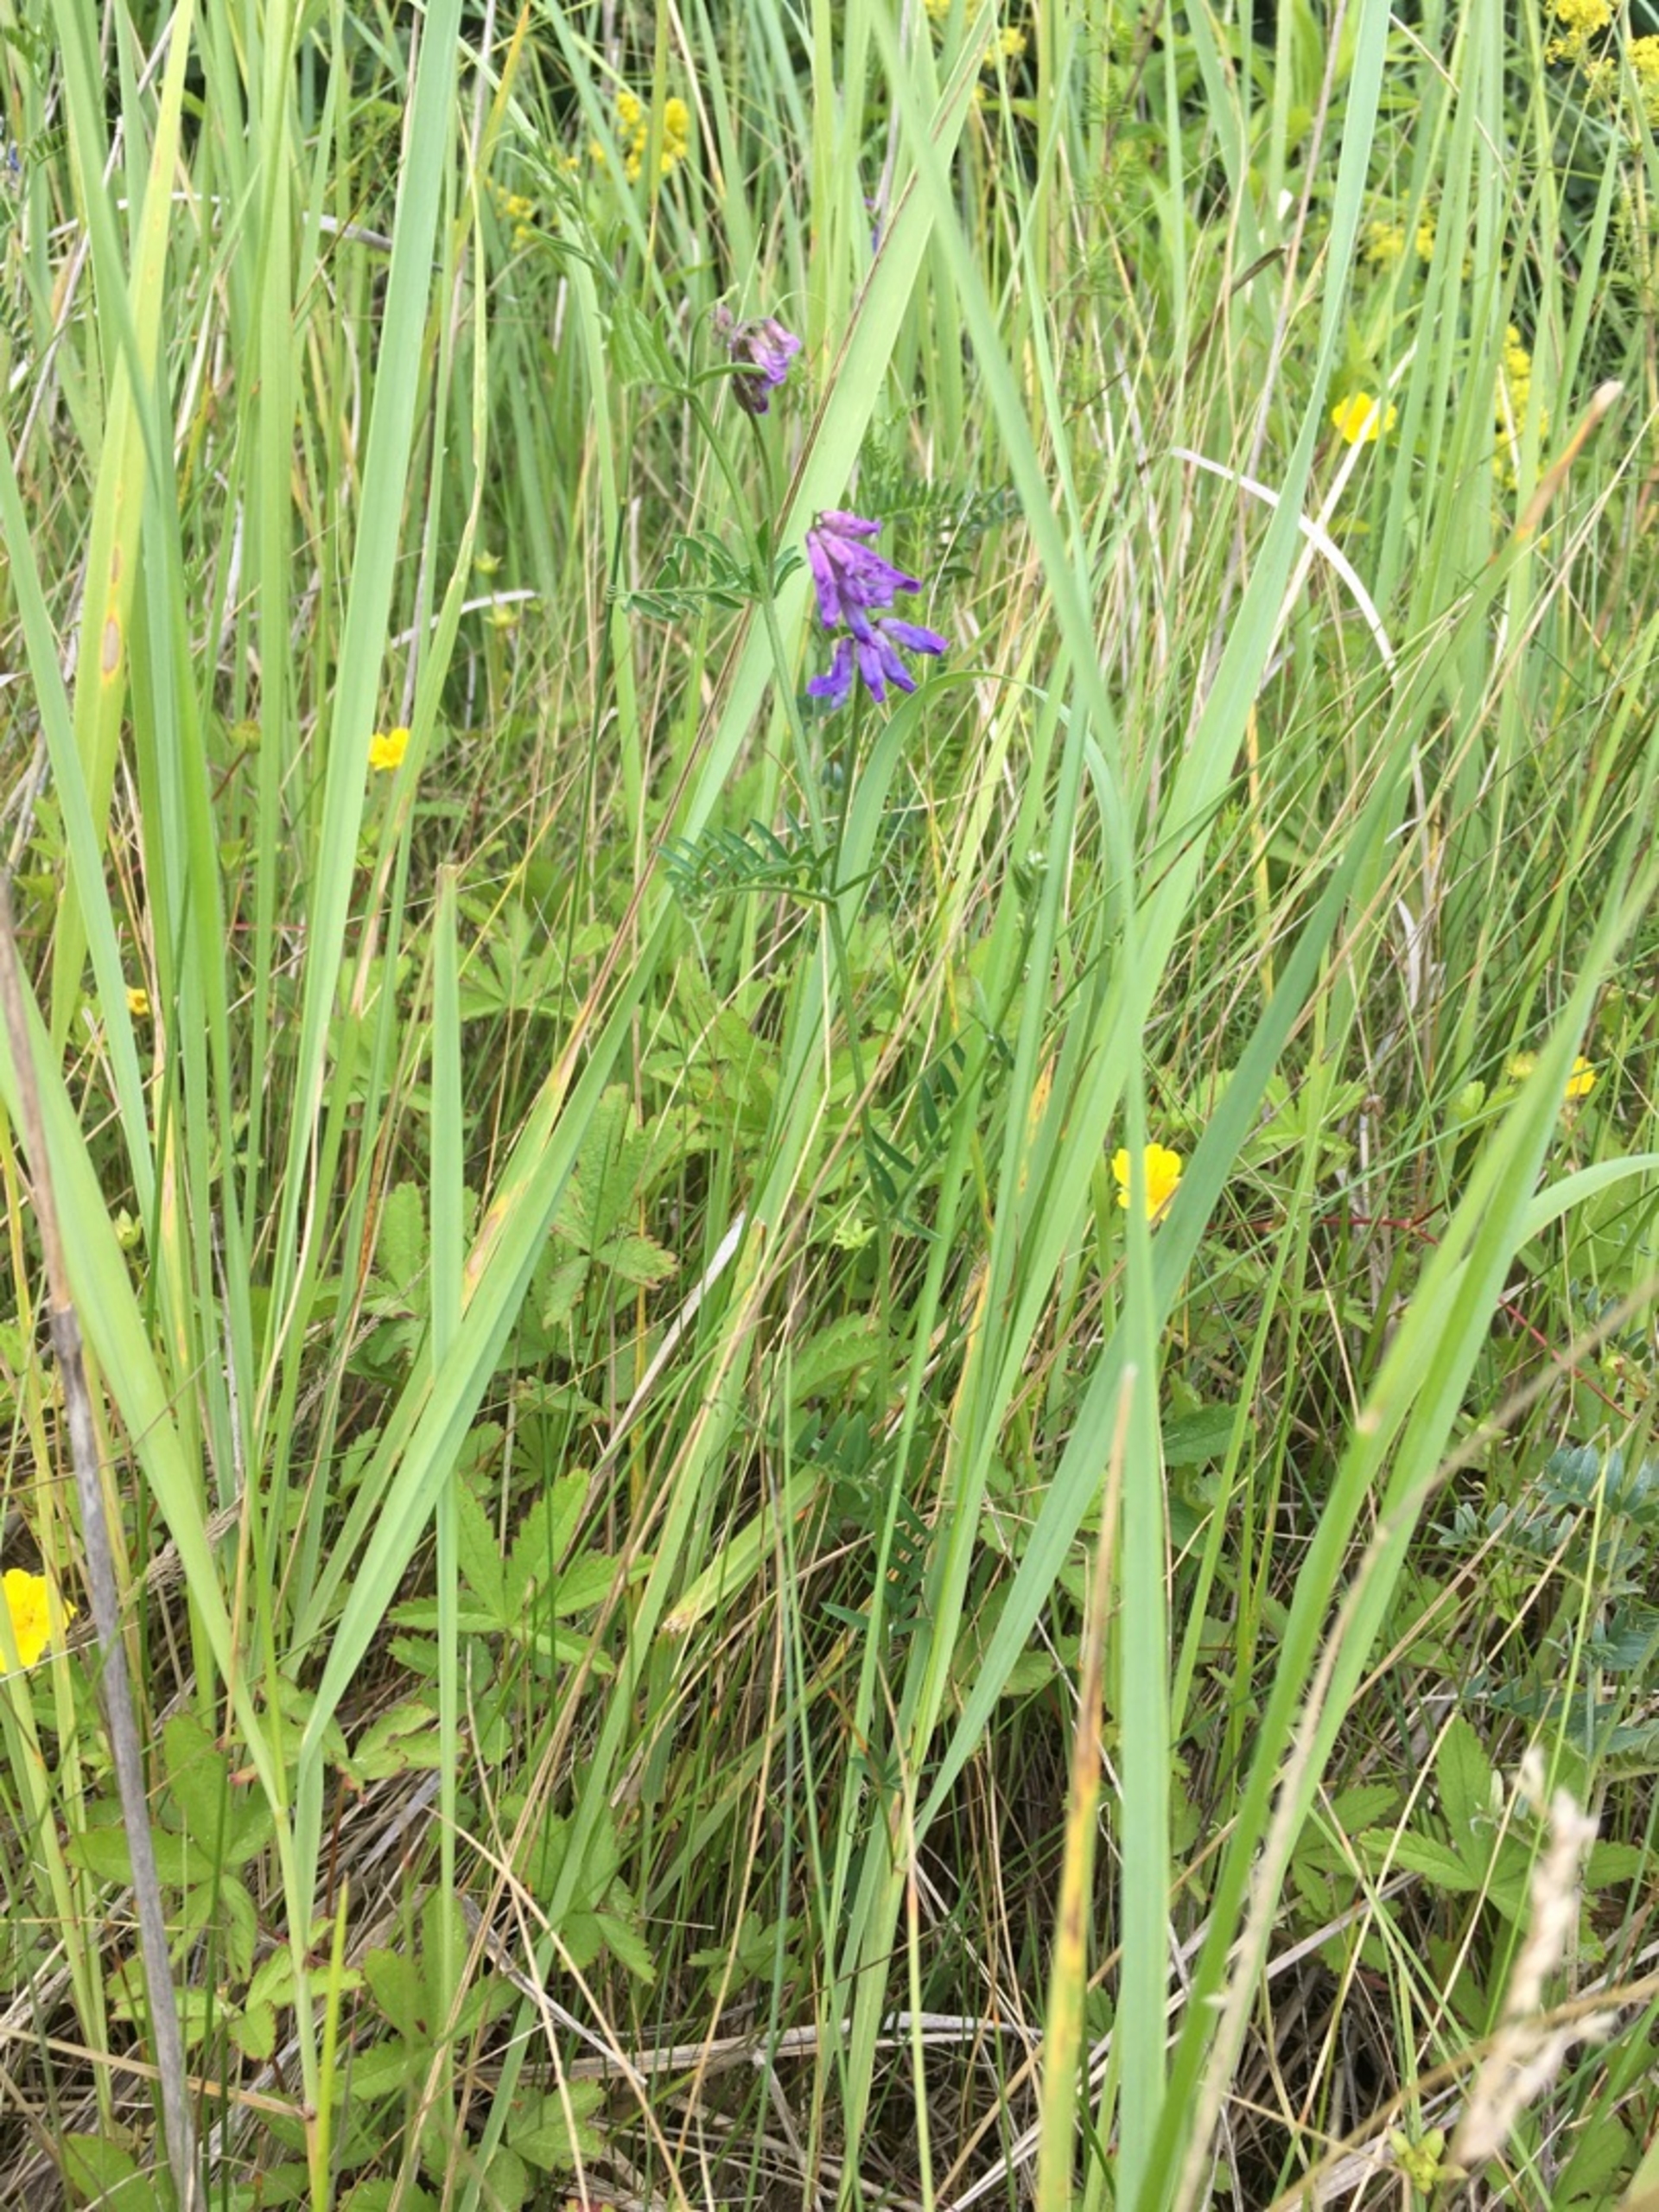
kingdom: Plantae
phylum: Tracheophyta
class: Magnoliopsida
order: Fabales
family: Fabaceae
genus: Vicia
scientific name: Vicia cracca
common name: Muse-vikke
